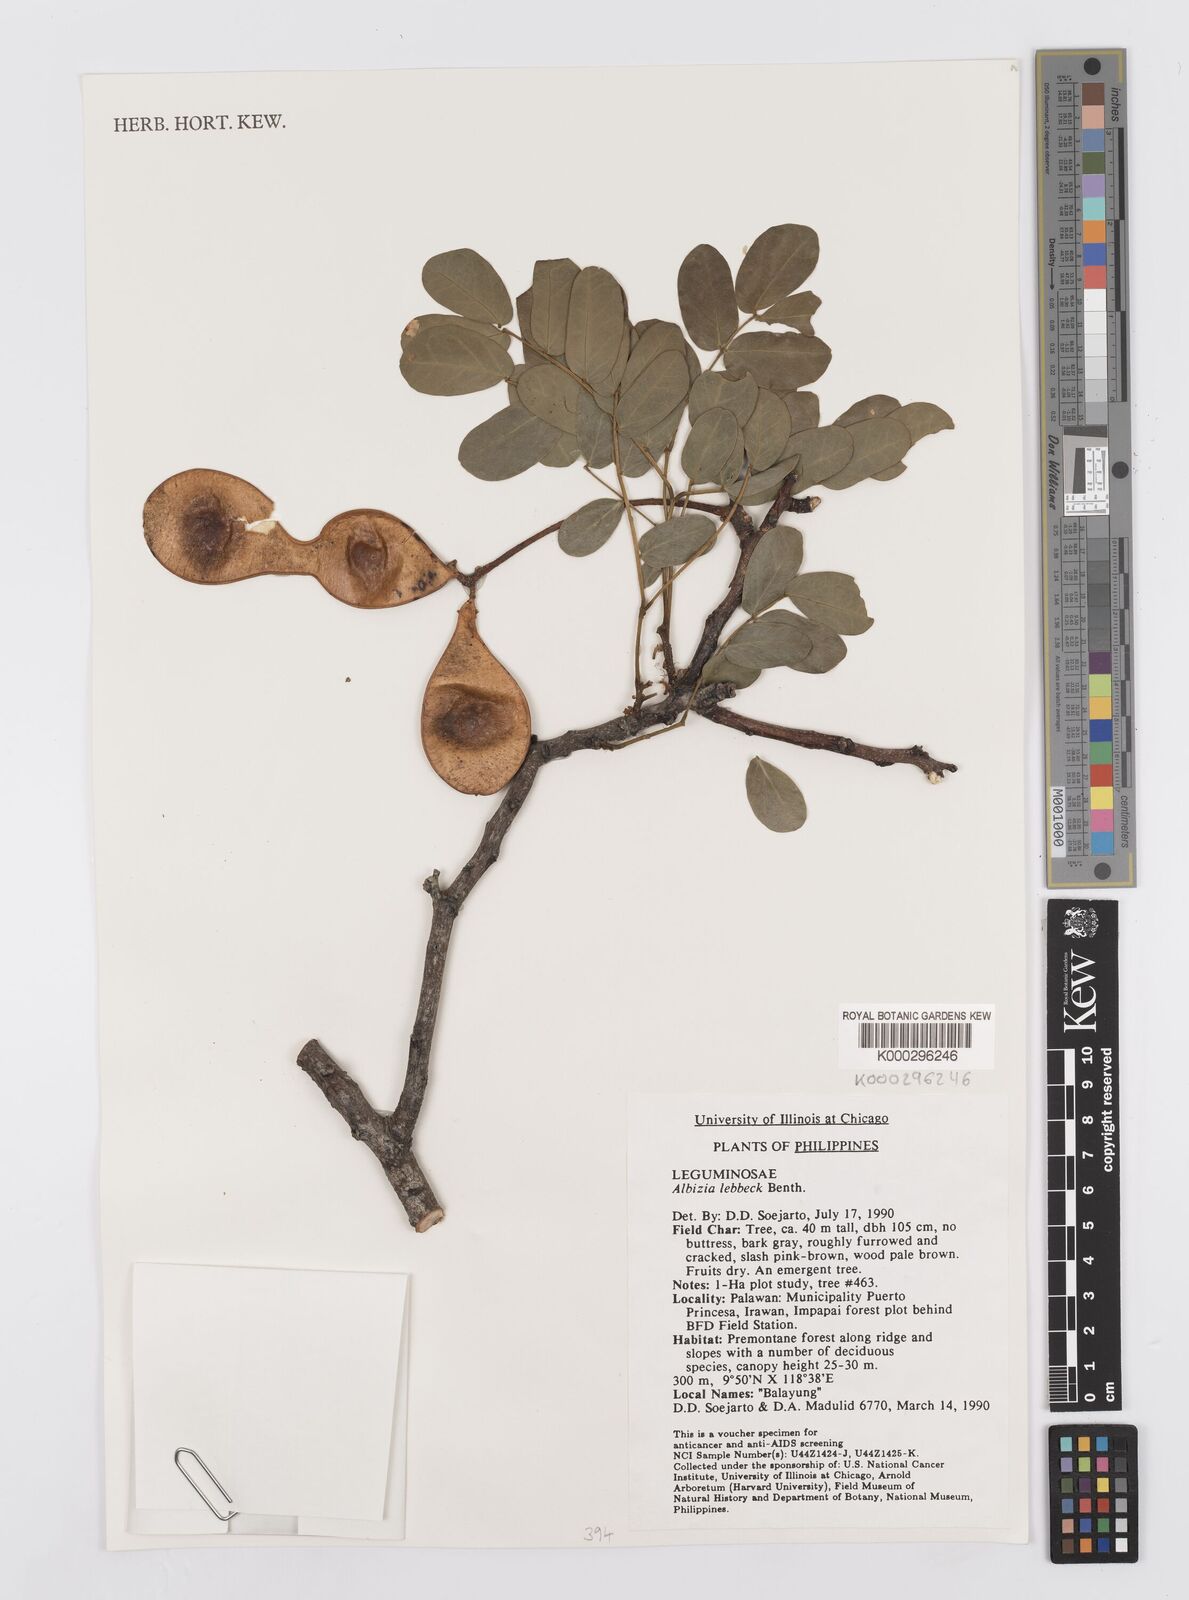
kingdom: Plantae
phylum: Tracheophyta
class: Magnoliopsida
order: Fabales
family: Fabaceae
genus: Albizia
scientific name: Albizia lebbeck
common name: Woman's tongue
